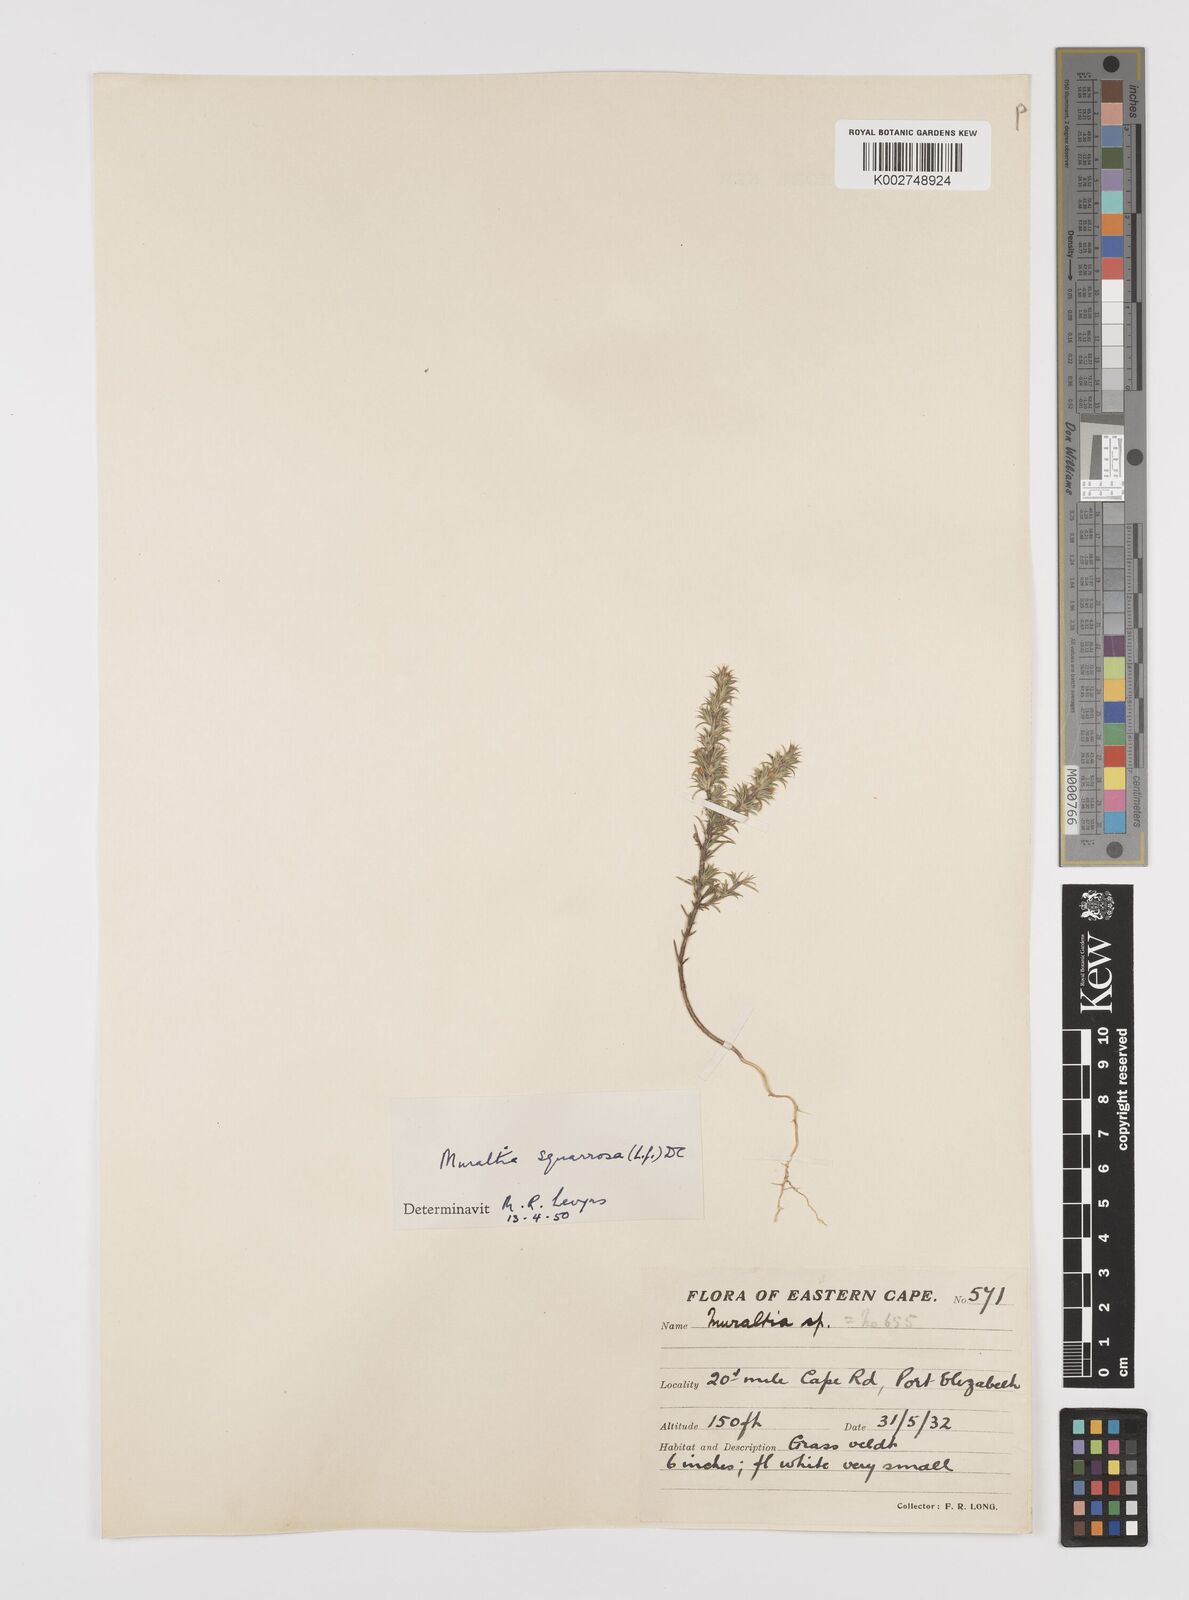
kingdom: Plantae
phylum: Tracheophyta
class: Magnoliopsida
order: Fabales
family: Polygalaceae
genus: Muraltia
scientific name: Muraltia squarrosa
